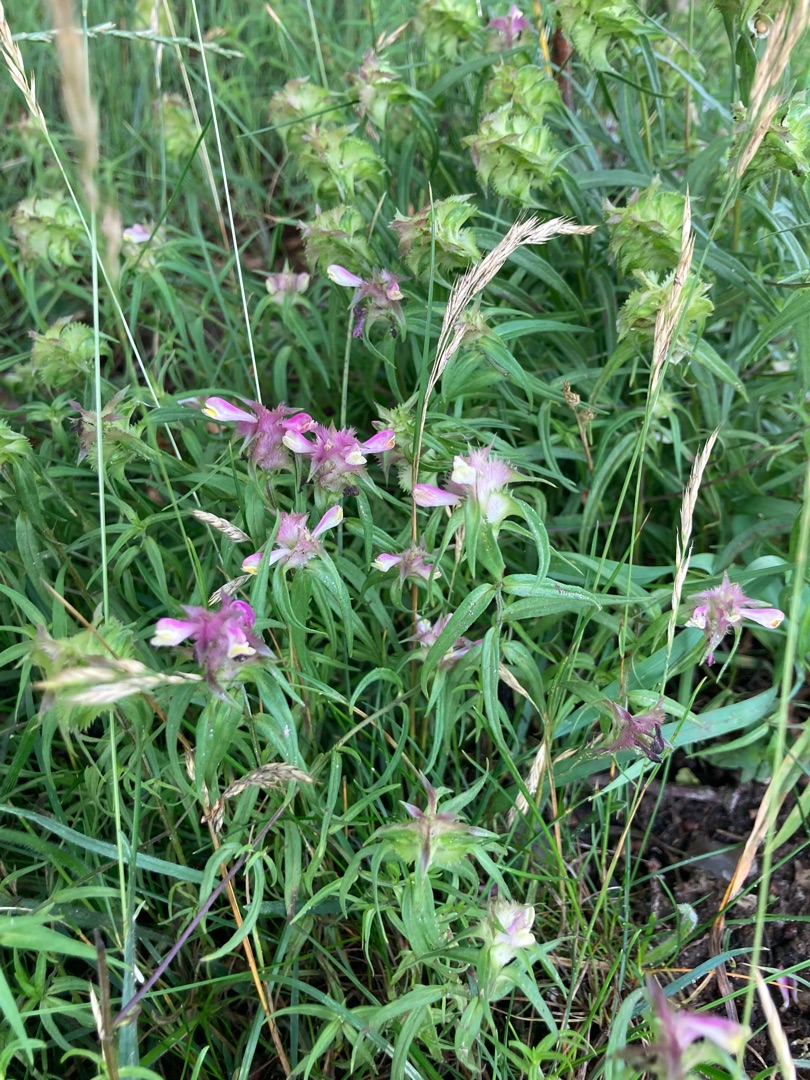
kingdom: Plantae
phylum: Tracheophyta
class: Magnoliopsida
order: Lamiales
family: Orobanchaceae
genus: Melampyrum
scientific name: Melampyrum cristatum
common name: Kantet kohvede
